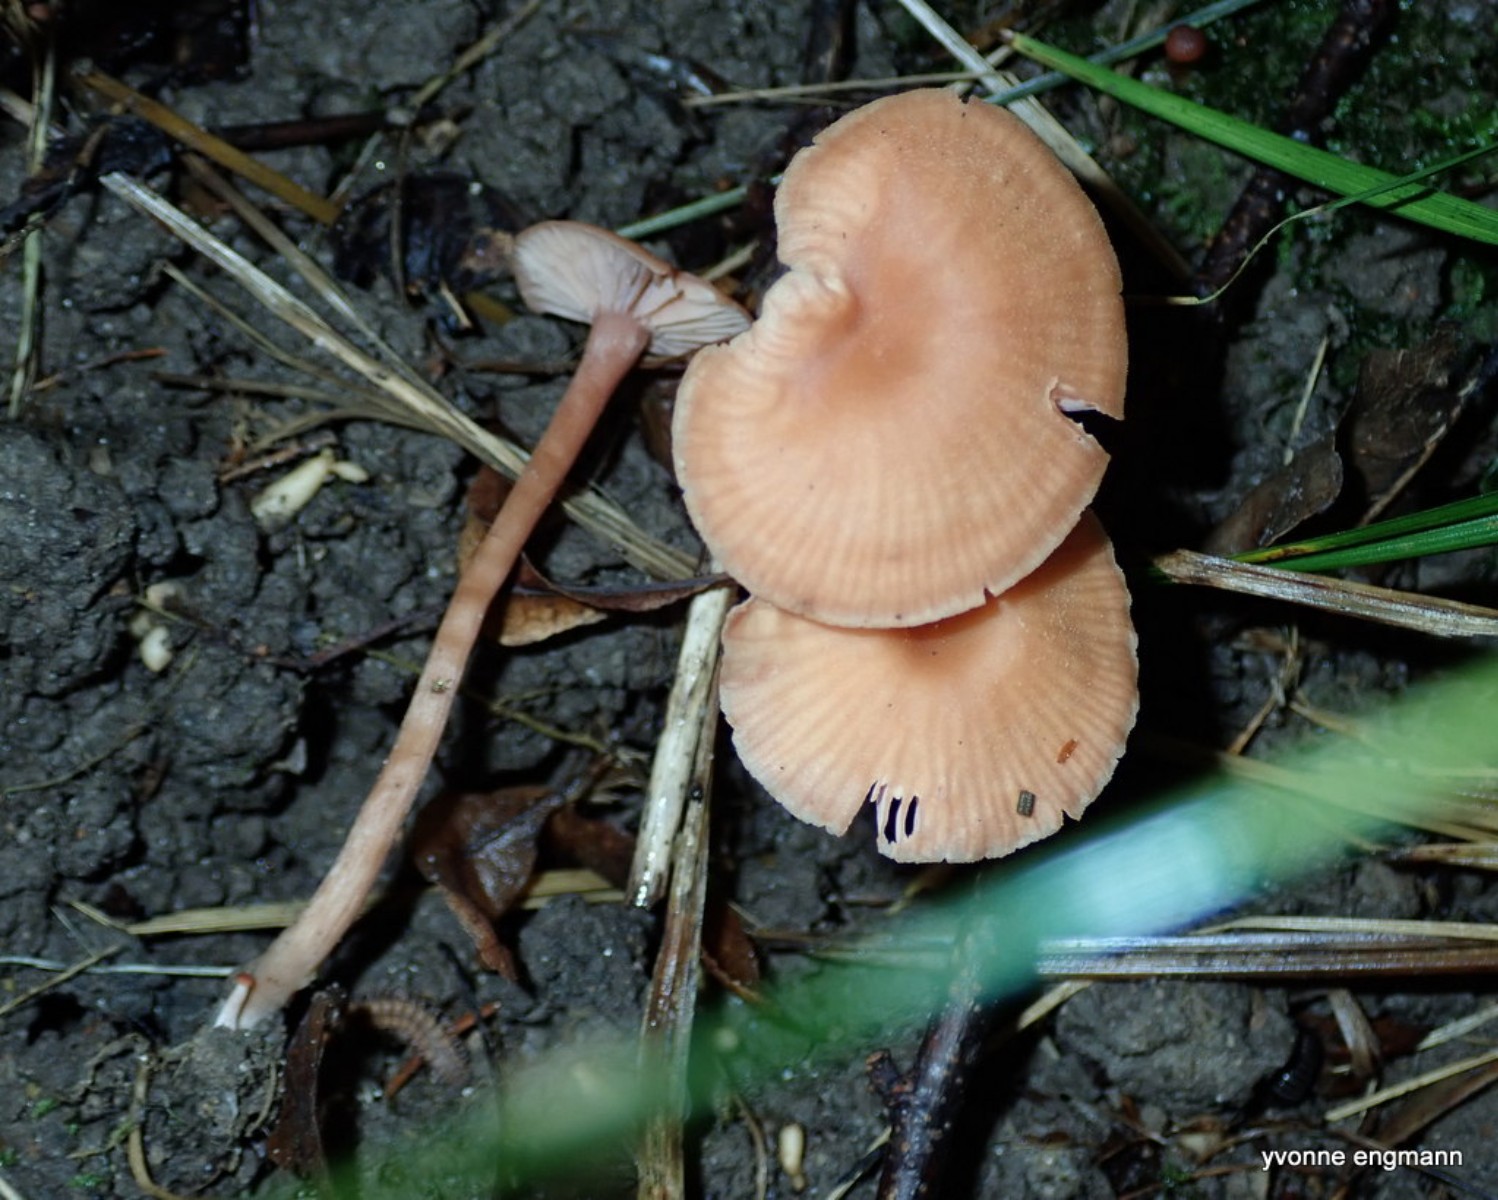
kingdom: Fungi
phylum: Basidiomycota
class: Agaricomycetes
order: Agaricales
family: Hydnangiaceae
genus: Laccaria
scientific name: Laccaria laccata
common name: rød ametysthat
